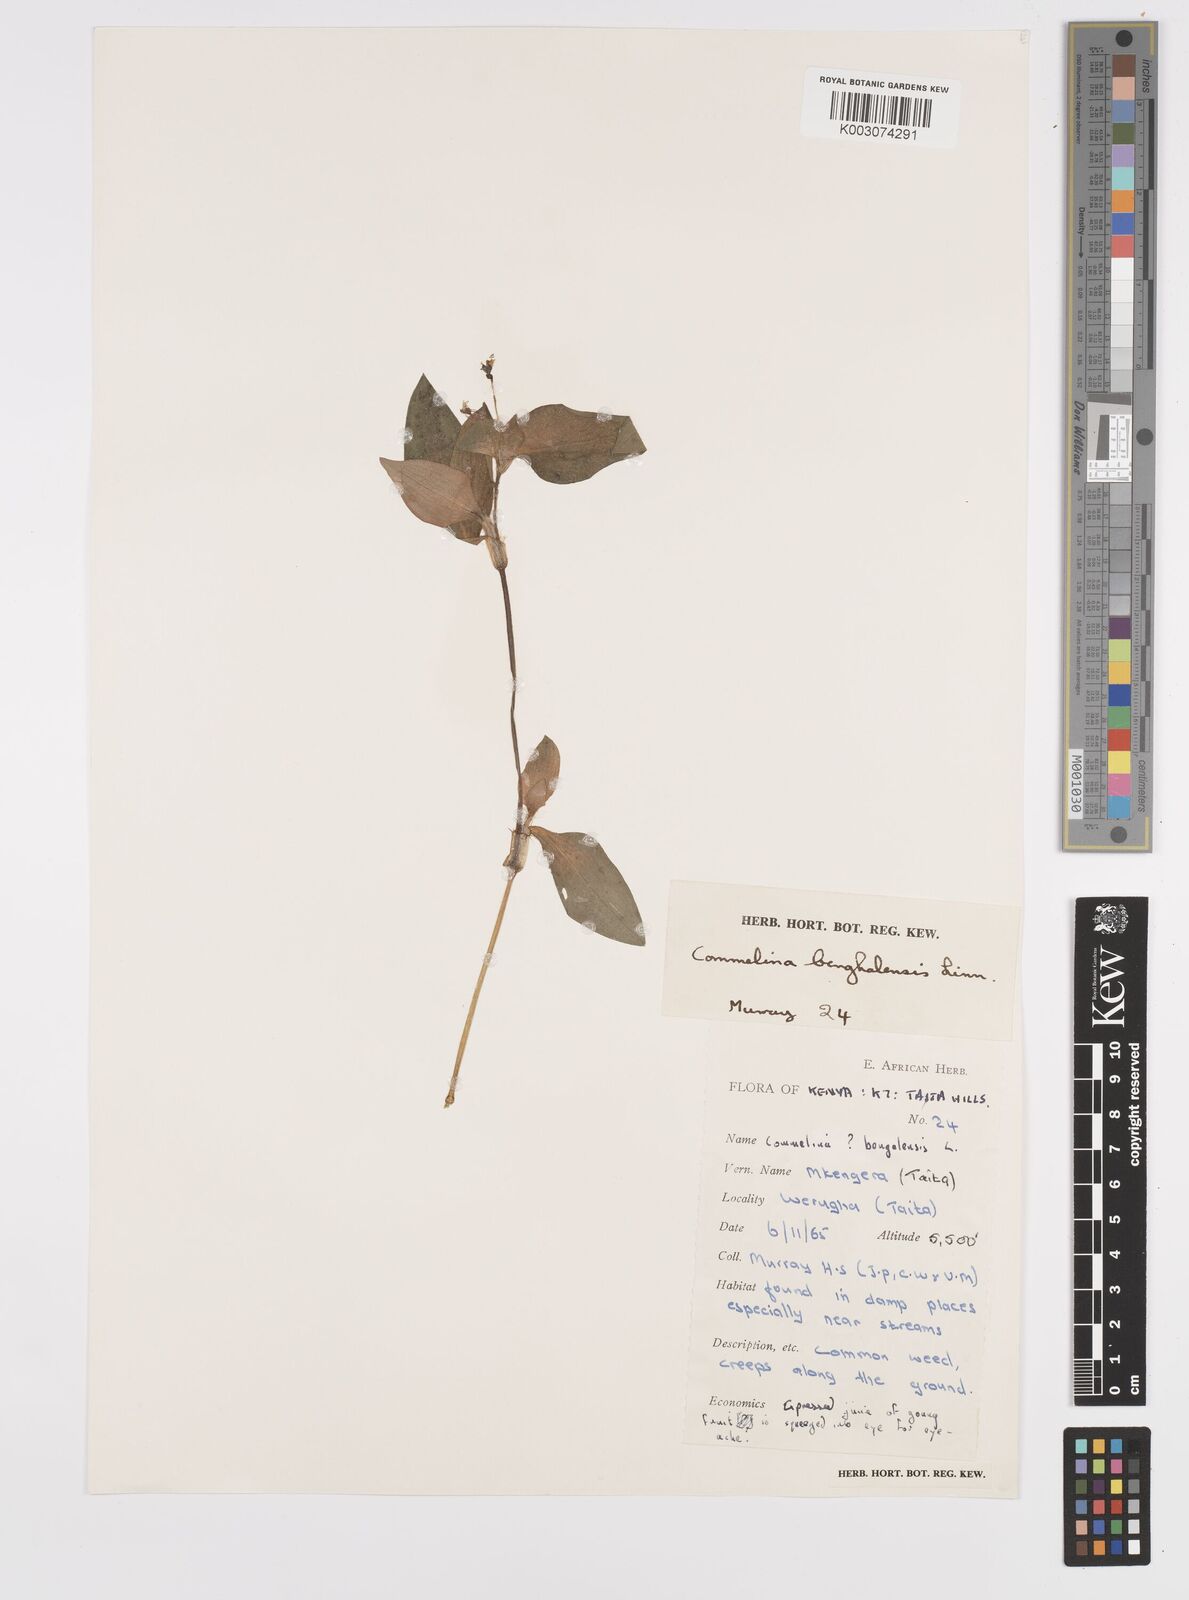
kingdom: Plantae
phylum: Tracheophyta
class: Liliopsida
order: Commelinales
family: Commelinaceae
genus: Commelina
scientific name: Commelina benghalensis
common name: Jio
